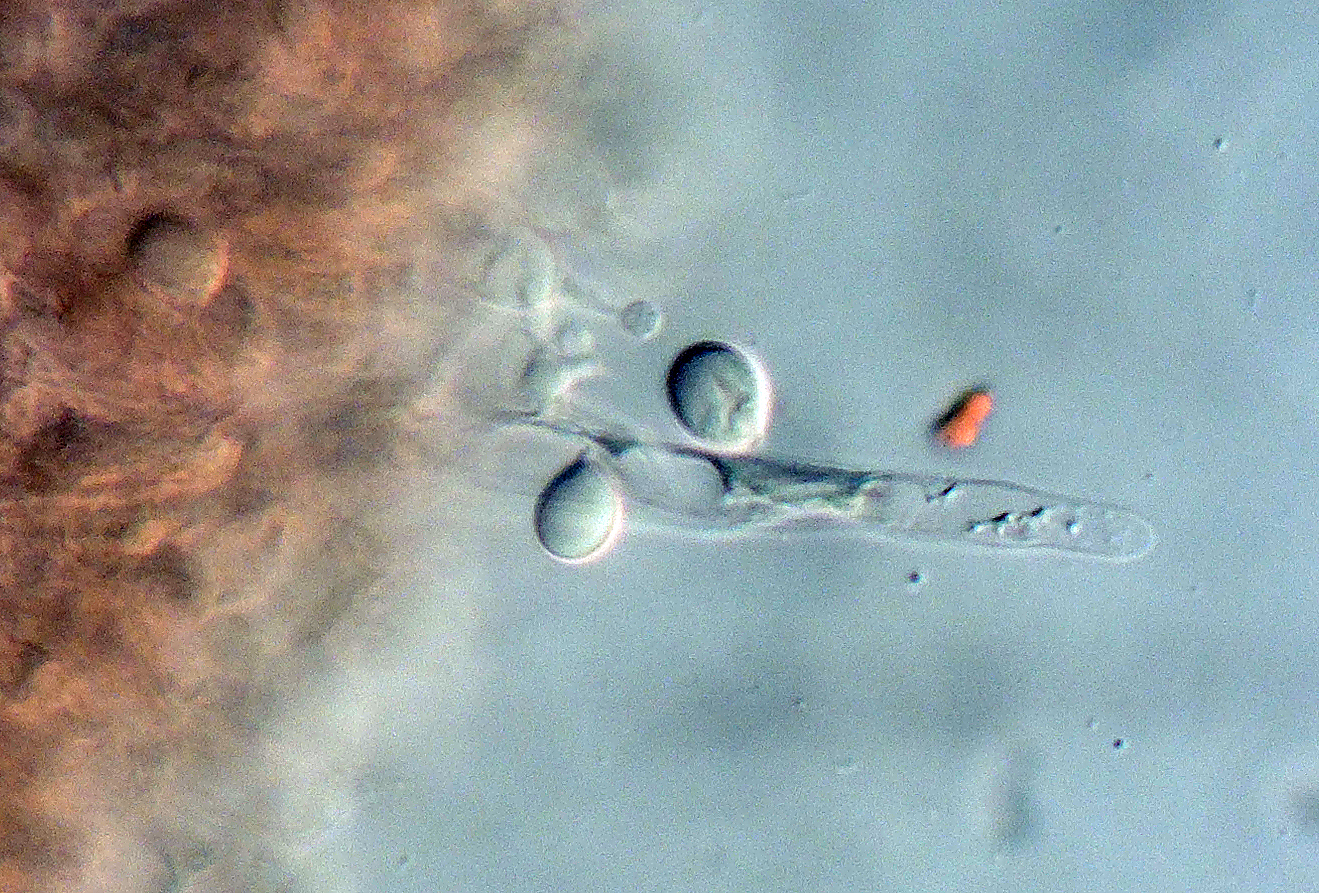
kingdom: Fungi
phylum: Basidiomycota
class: Agaricomycetes
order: Cantharellales
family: Hydnaceae
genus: Clavulina
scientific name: Clavulina incarnata
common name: dunet troldkølle
